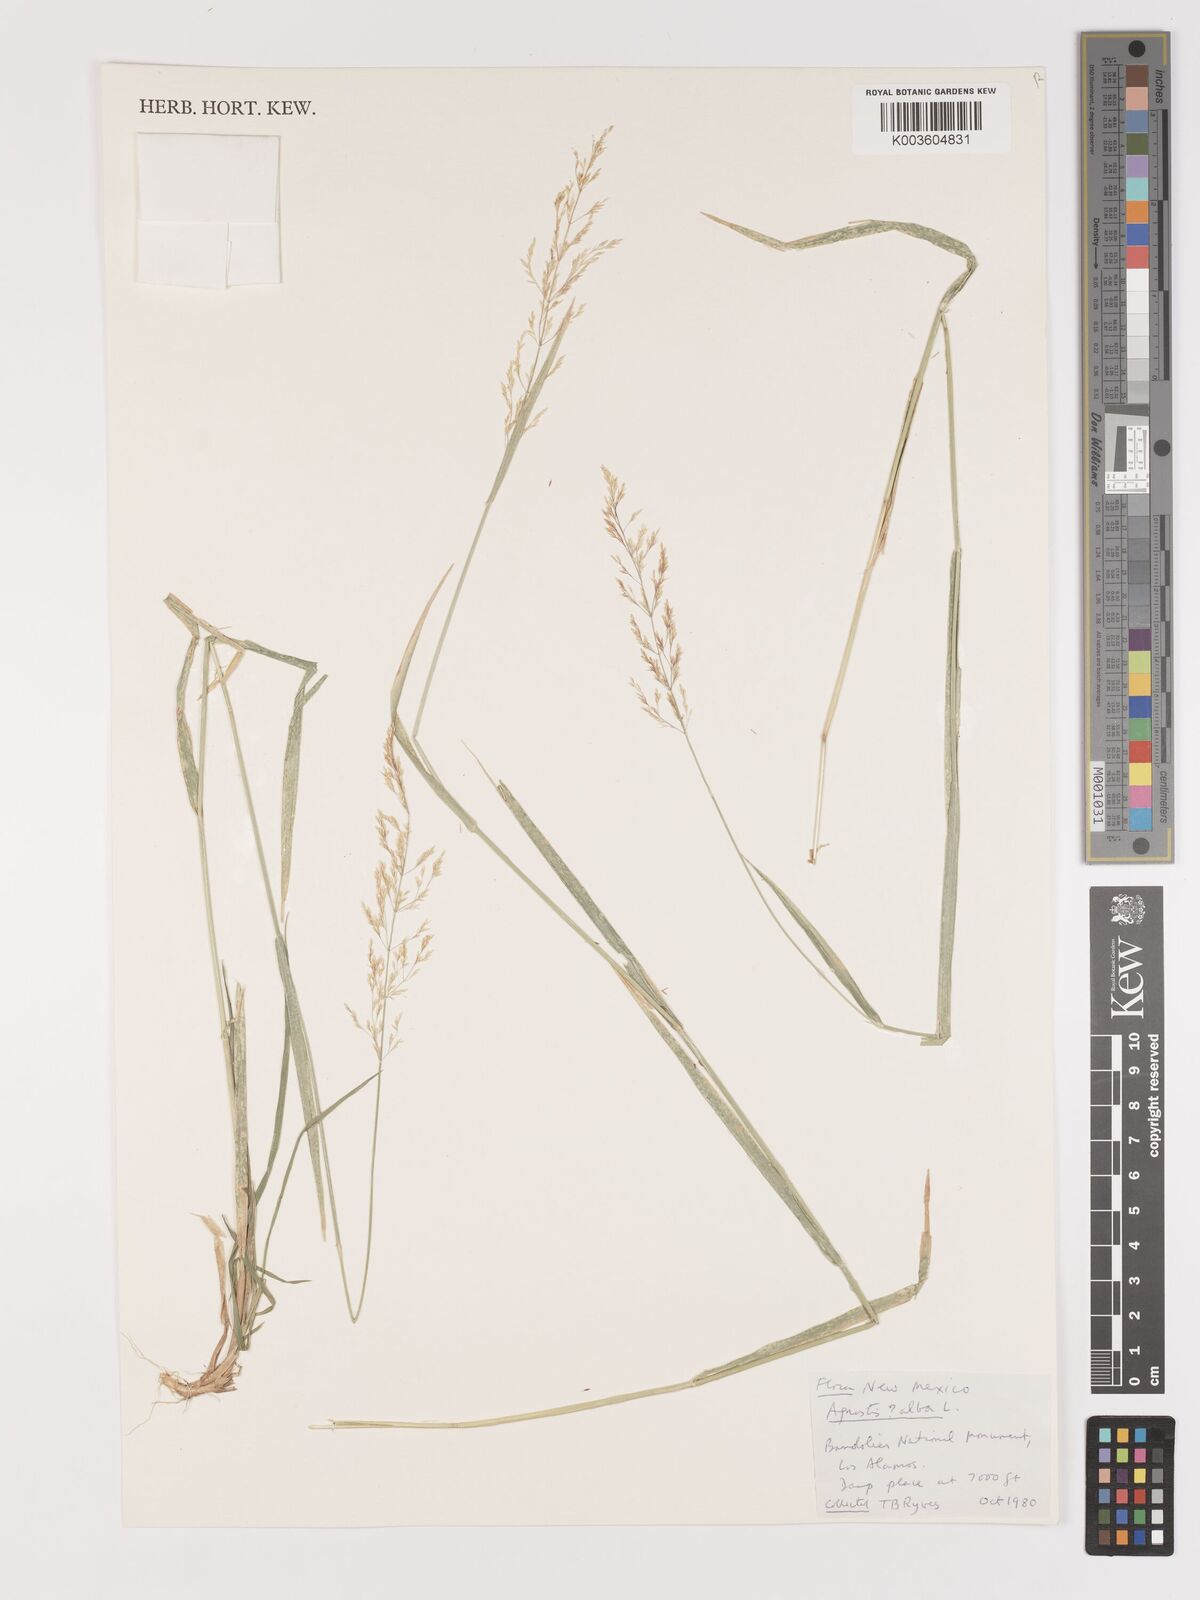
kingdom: Plantae
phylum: Tracheophyta
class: Liliopsida
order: Poales
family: Poaceae
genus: Agrostis
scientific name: Agrostis
